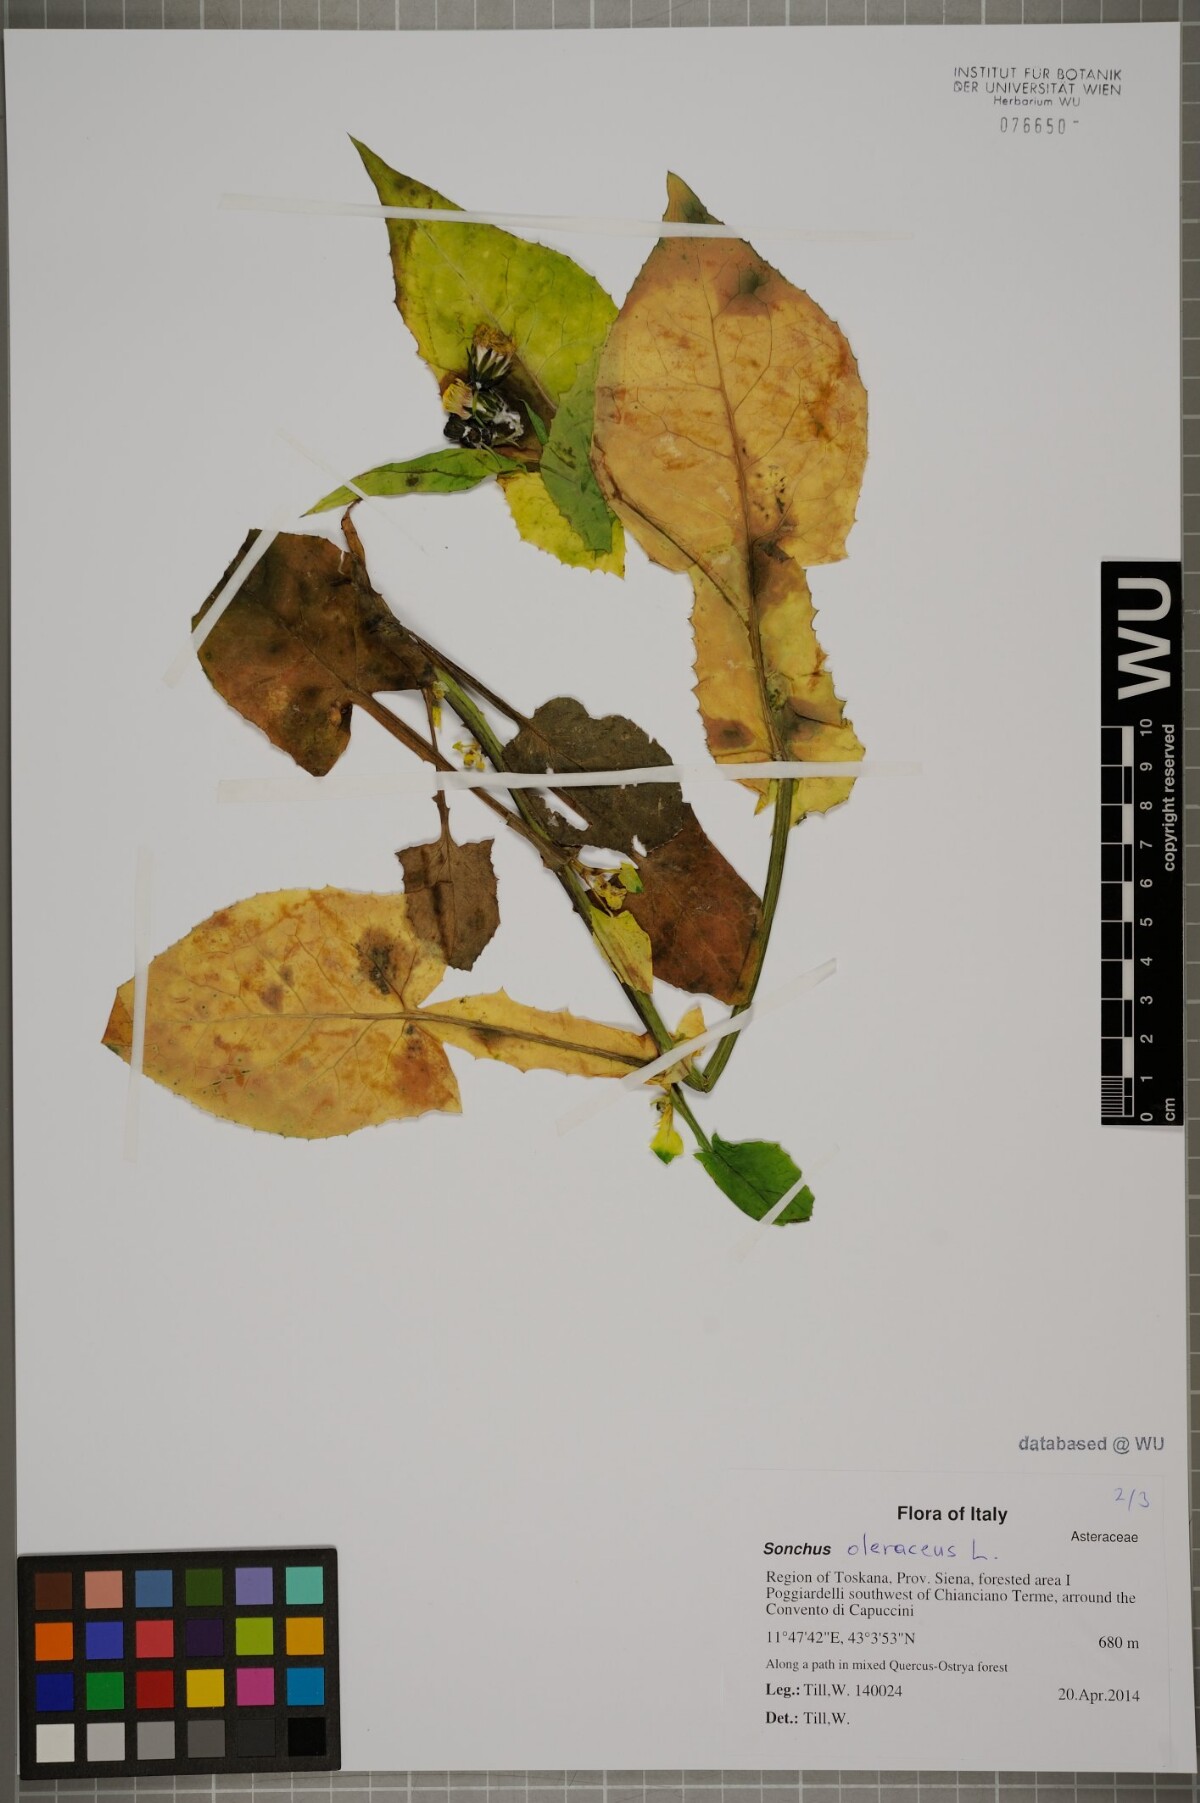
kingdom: Plantae
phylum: Tracheophyta
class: Magnoliopsida
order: Asterales
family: Asteraceae
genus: Sonchus
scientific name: Sonchus oleraceus
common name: Common sowthistle
